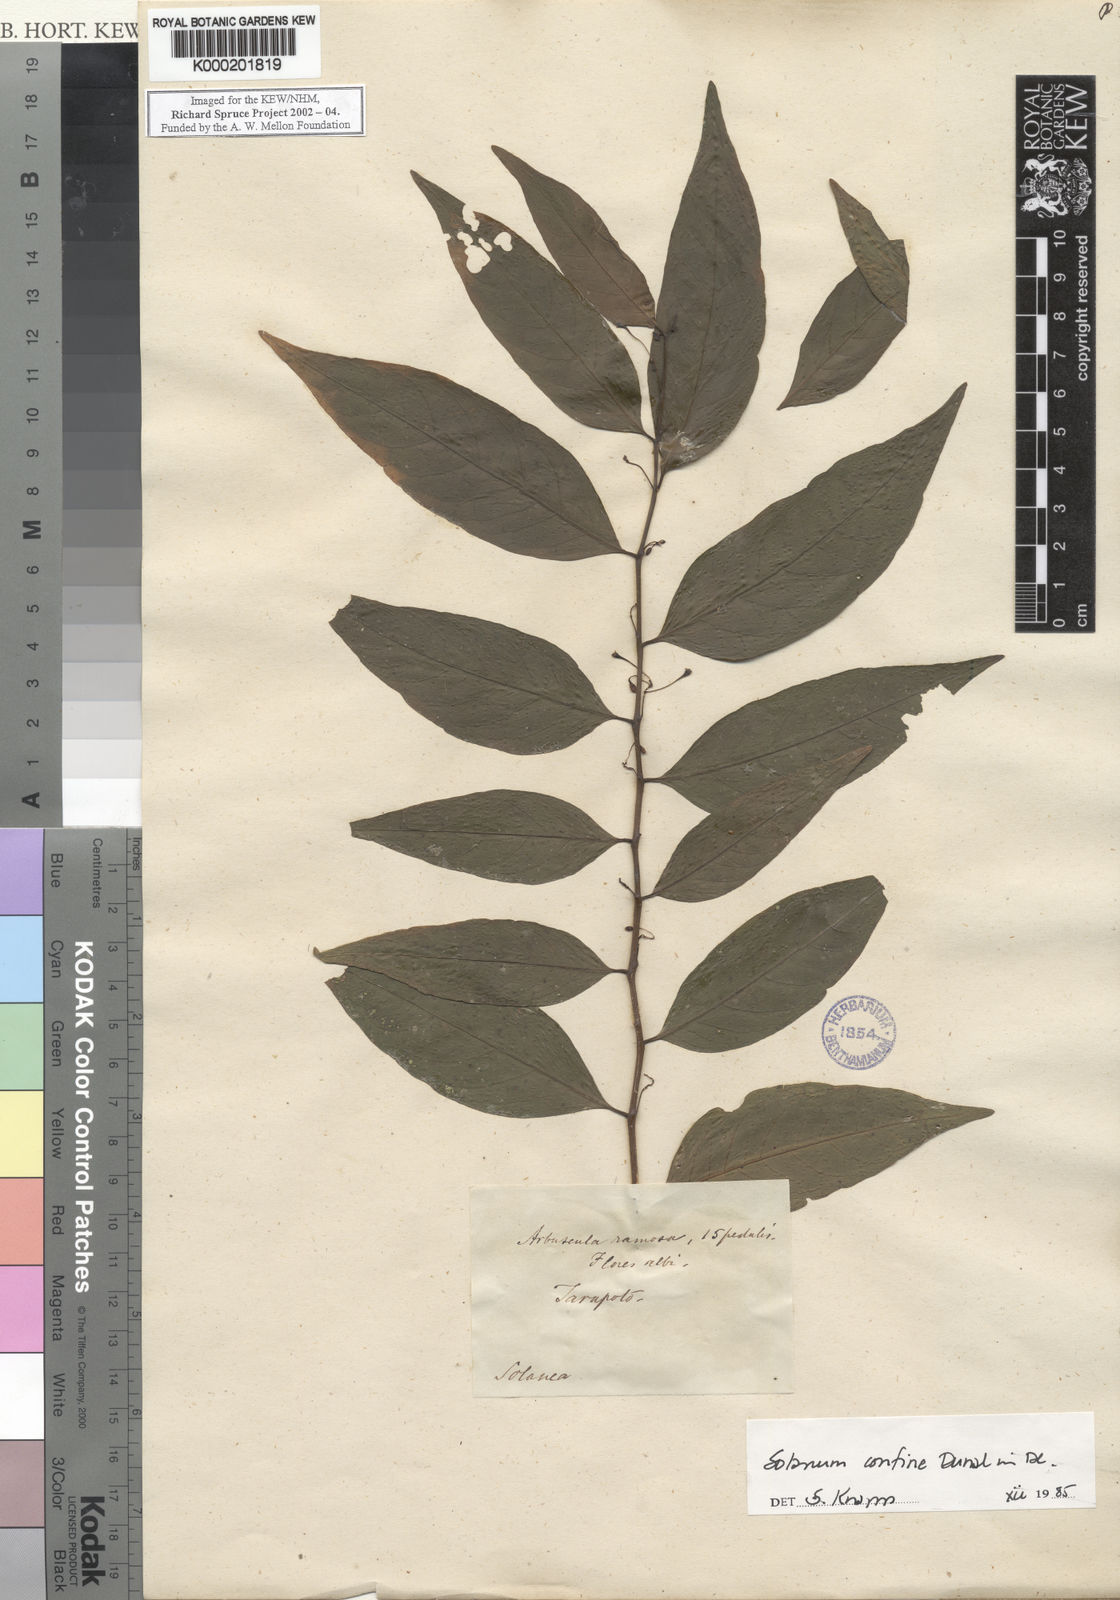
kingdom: Plantae
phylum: Tracheophyta
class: Magnoliopsida
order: Solanales
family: Solanaceae
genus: Solanum
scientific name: Solanum
